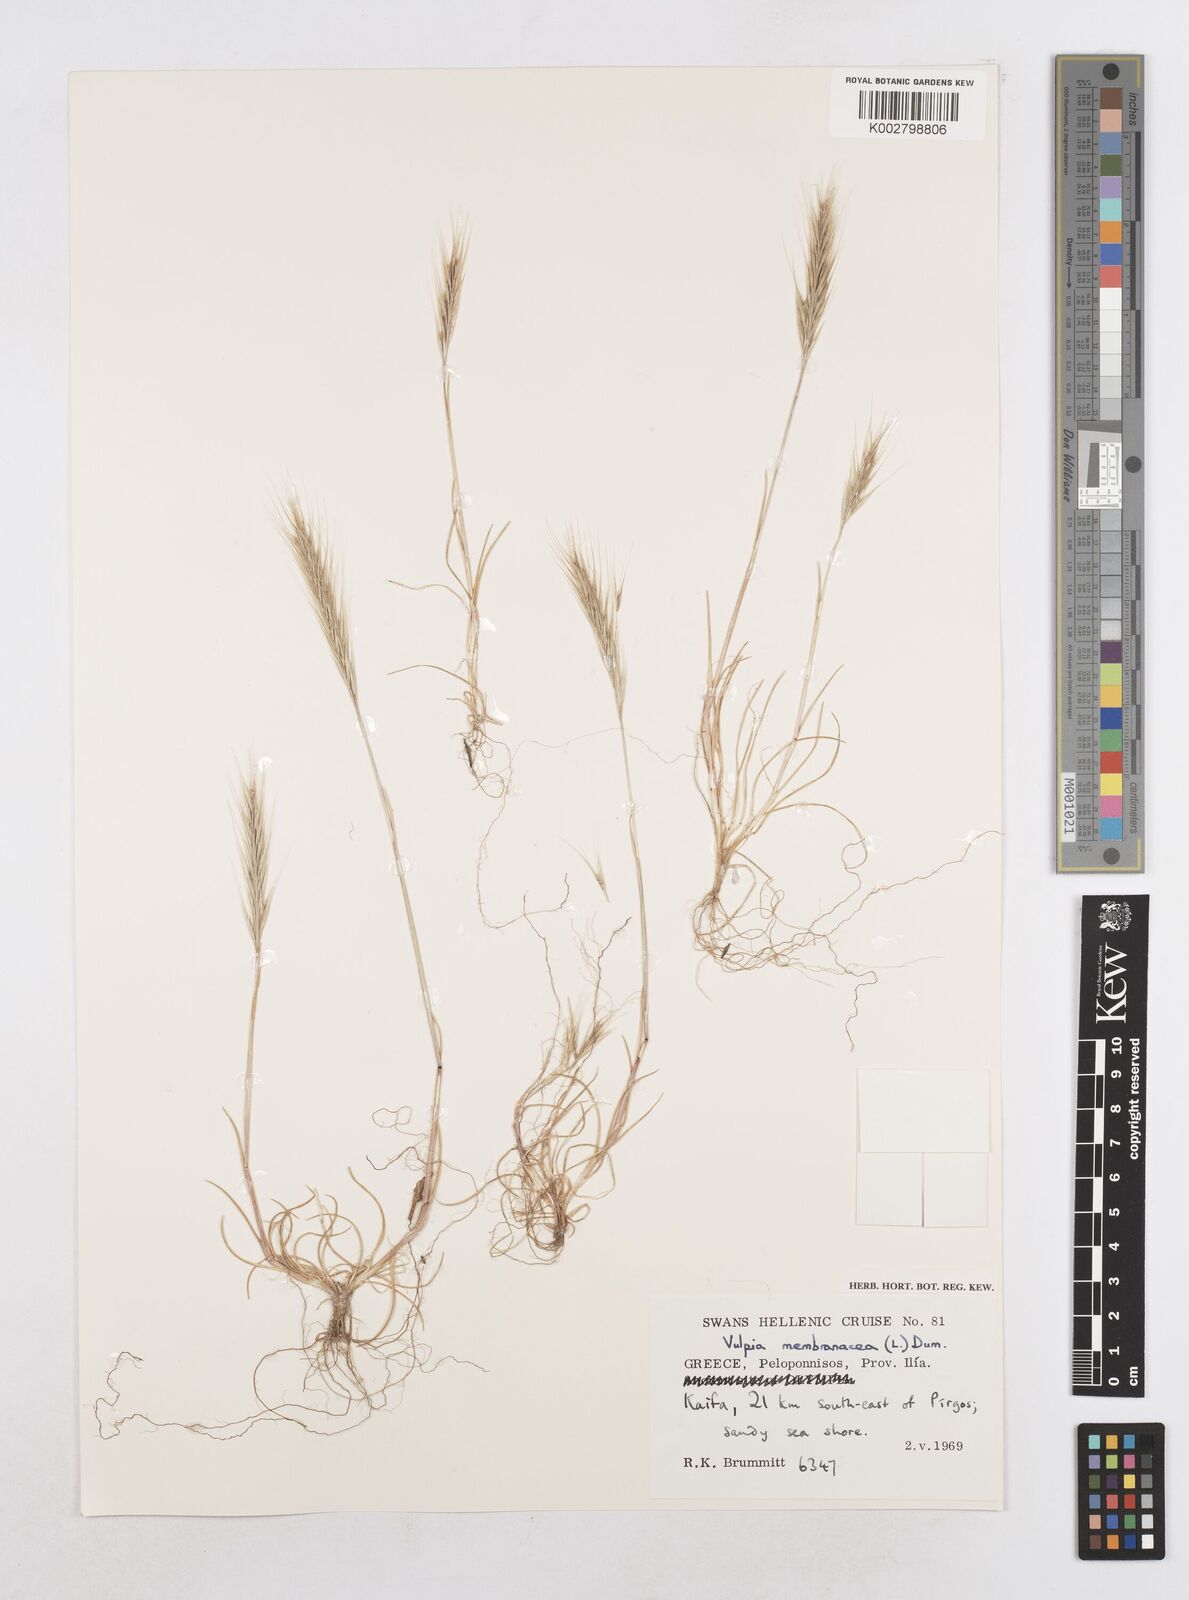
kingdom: Plantae
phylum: Tracheophyta
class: Liliopsida
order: Poales
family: Poaceae
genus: Festuca
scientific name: Festuca fasciculata
